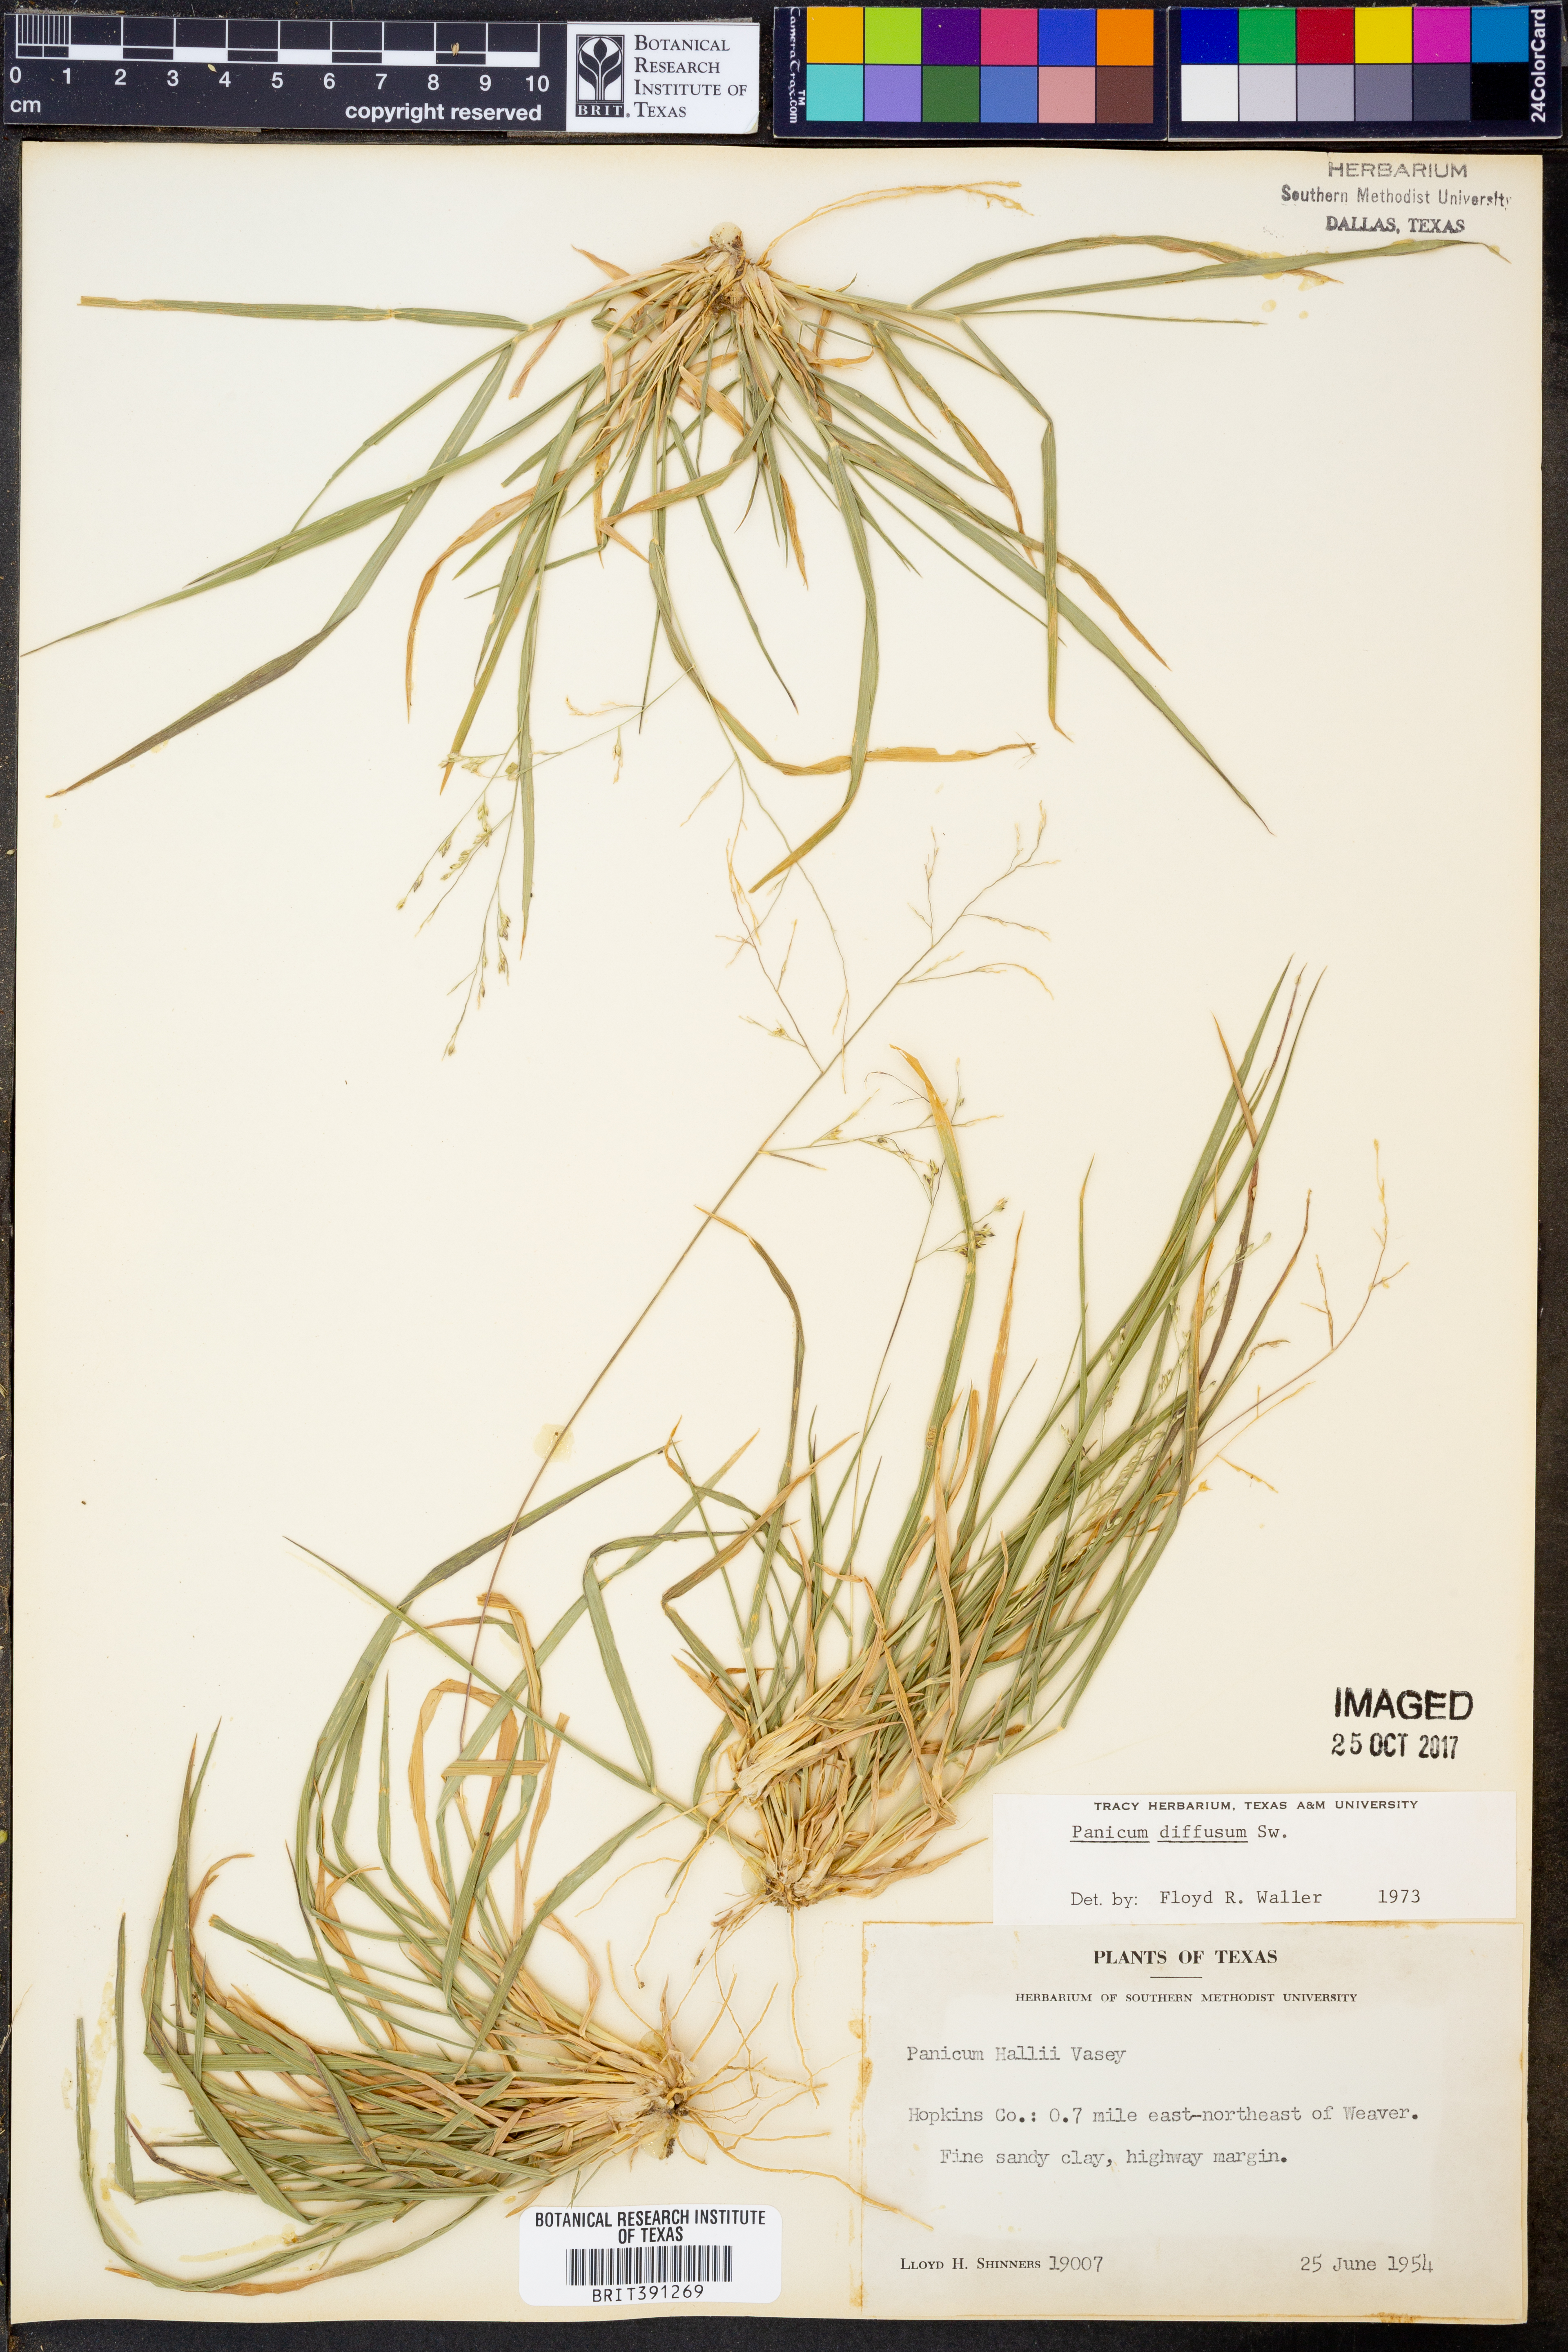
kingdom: Plantae
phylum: Tracheophyta
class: Liliopsida
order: Poales
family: Poaceae
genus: Panicum
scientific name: Panicum diffusum
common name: Spreading panicgrass
